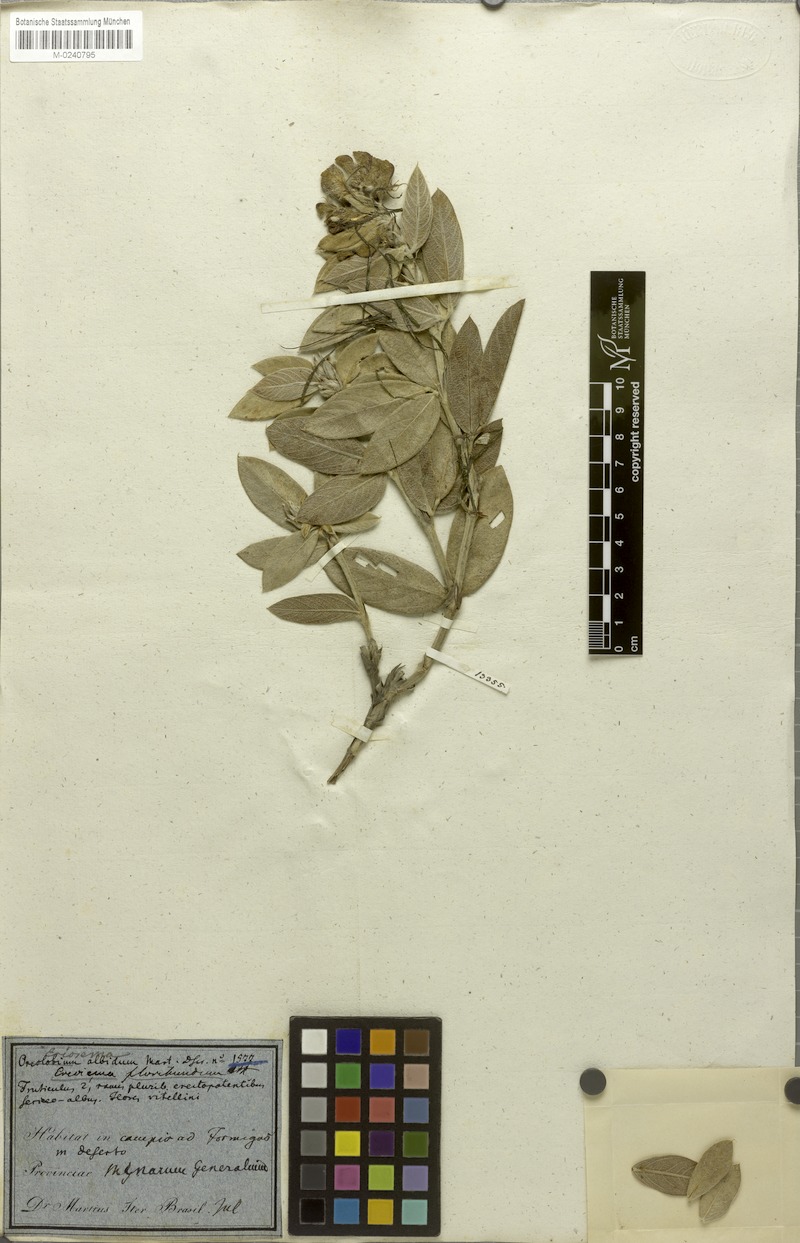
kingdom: Plantae
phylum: Tracheophyta
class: Magnoliopsida
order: Fabales
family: Fabaceae
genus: Eriosema
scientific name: Eriosema floribundum
